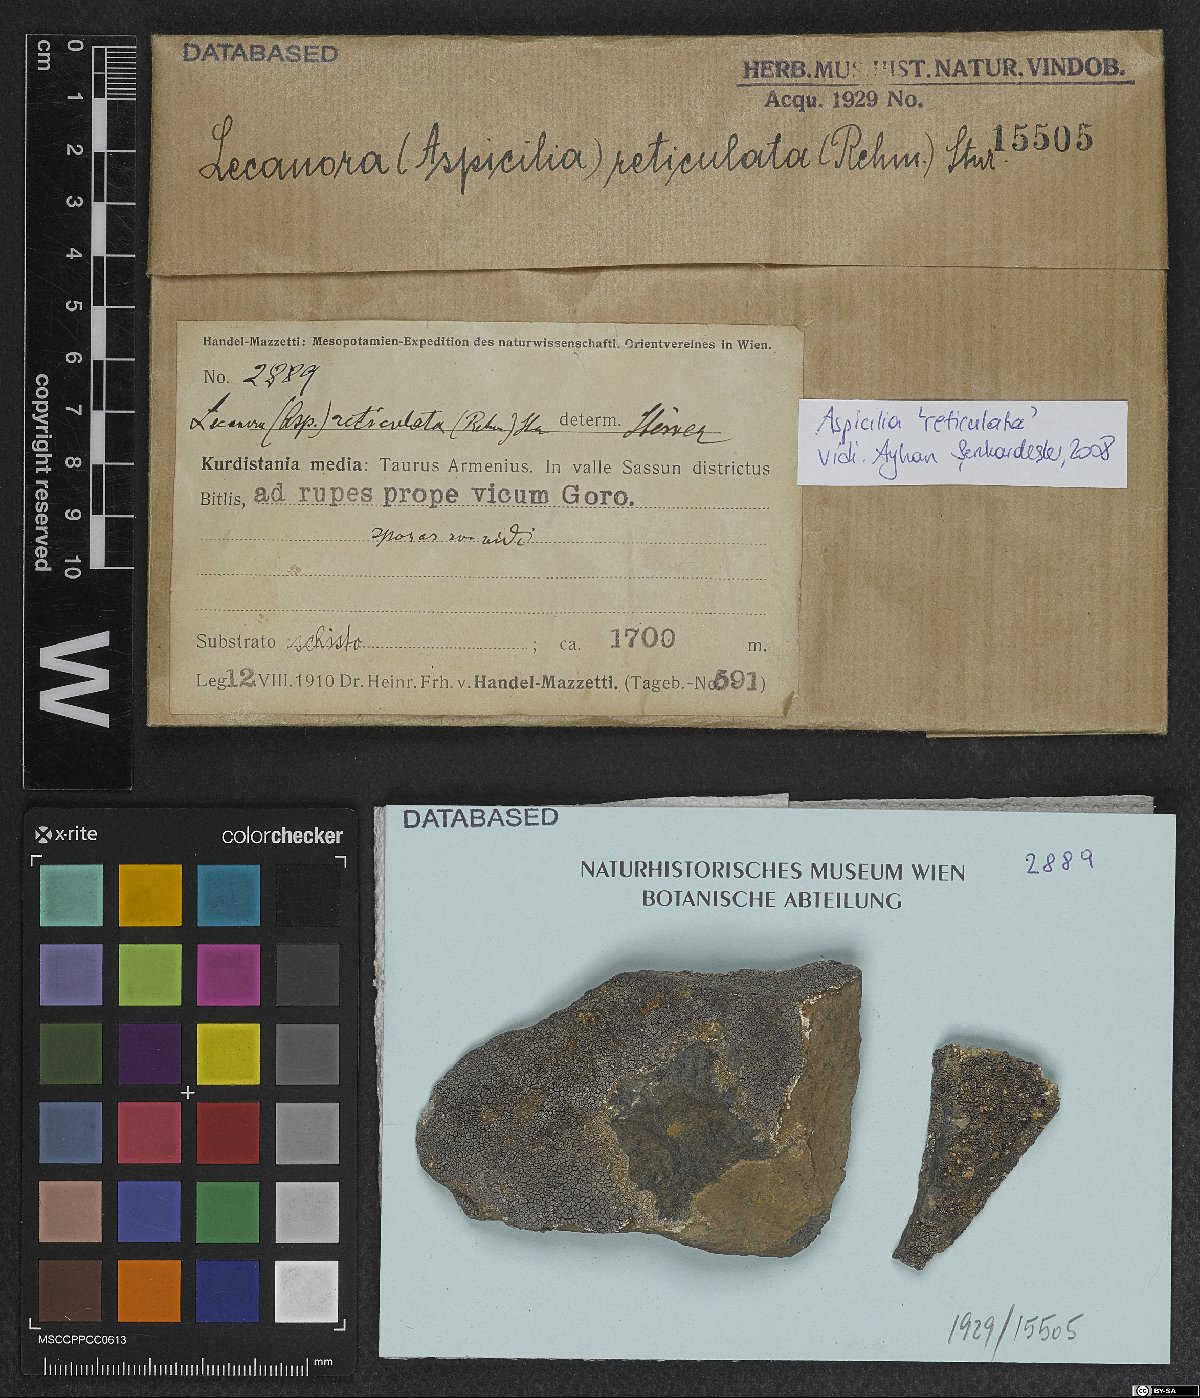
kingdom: Fungi
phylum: Ascomycota
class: Lecanoromycetes
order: Hymeneliales
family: Hymeneliaceae
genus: Aspicilia
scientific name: Aspicilia
